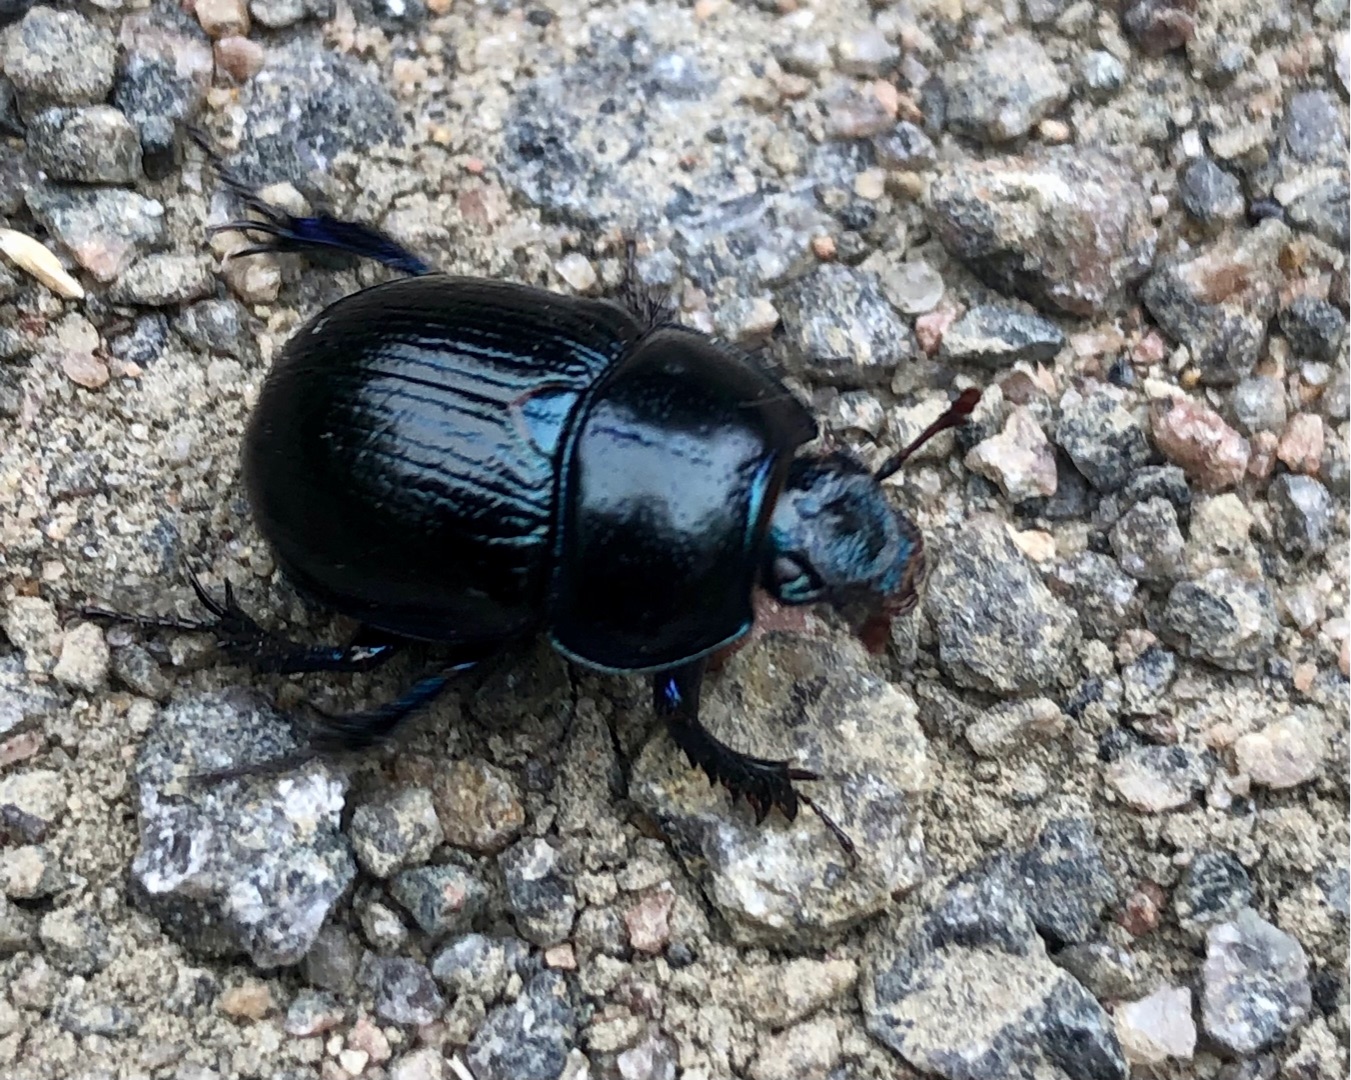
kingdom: Animalia
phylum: Arthropoda
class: Insecta
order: Coleoptera
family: Geotrupidae
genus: Anoplotrupes
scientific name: Anoplotrupes stercorosus
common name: Skovskarnbasse
